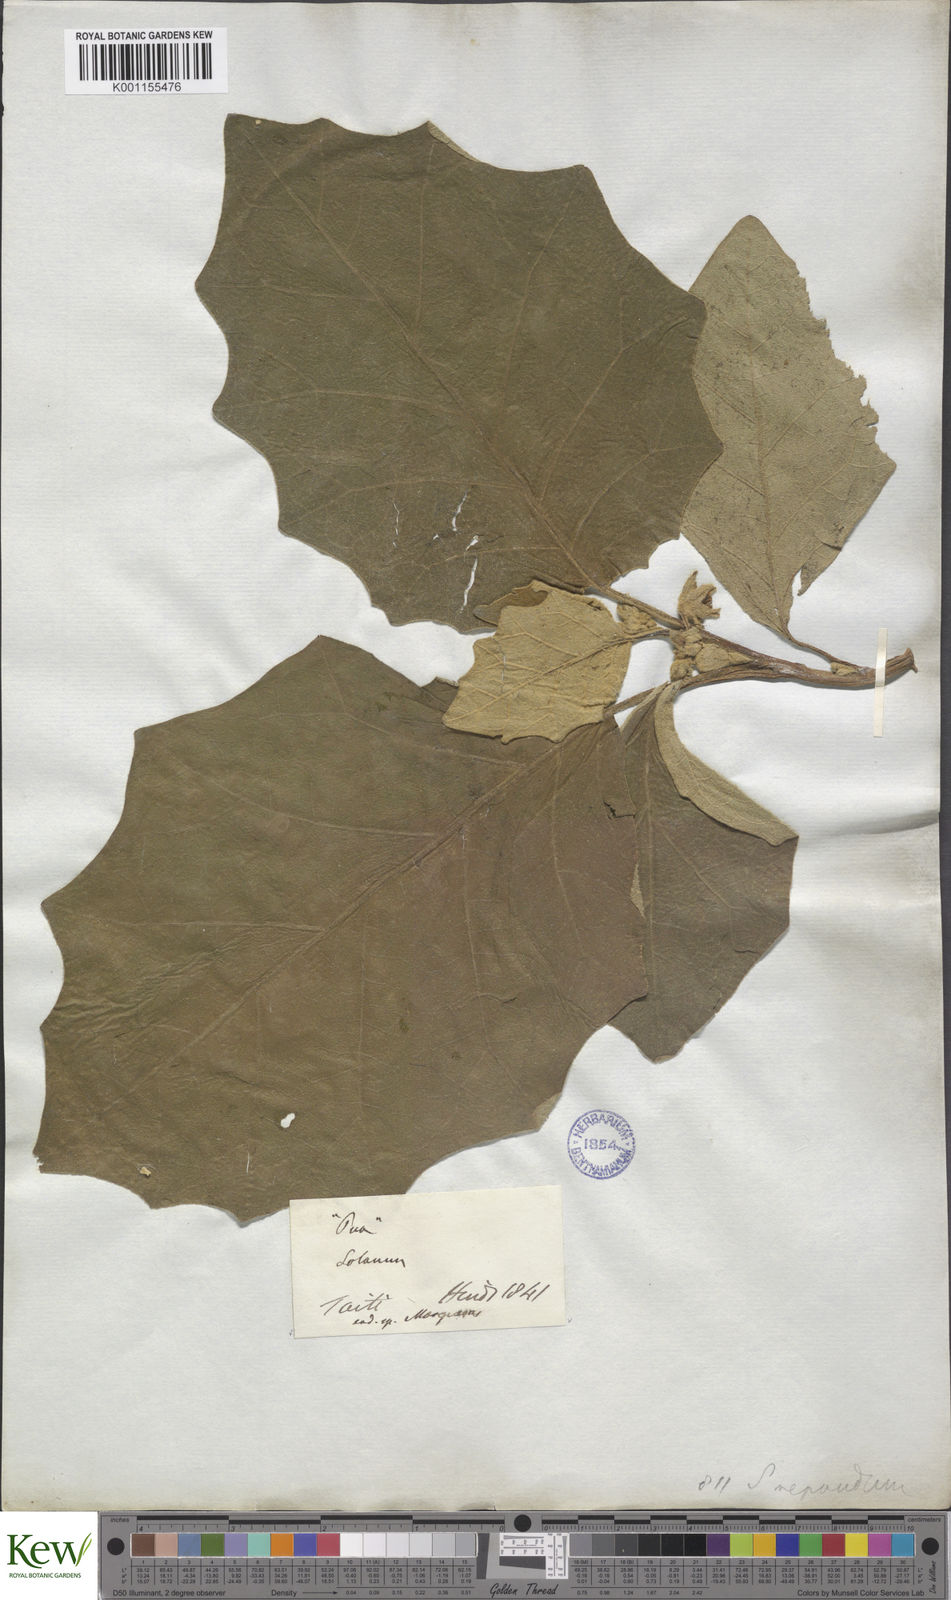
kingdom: Plantae
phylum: Tracheophyta
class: Magnoliopsida
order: Solanales
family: Solanaceae
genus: Solanum
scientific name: Solanum repandum
